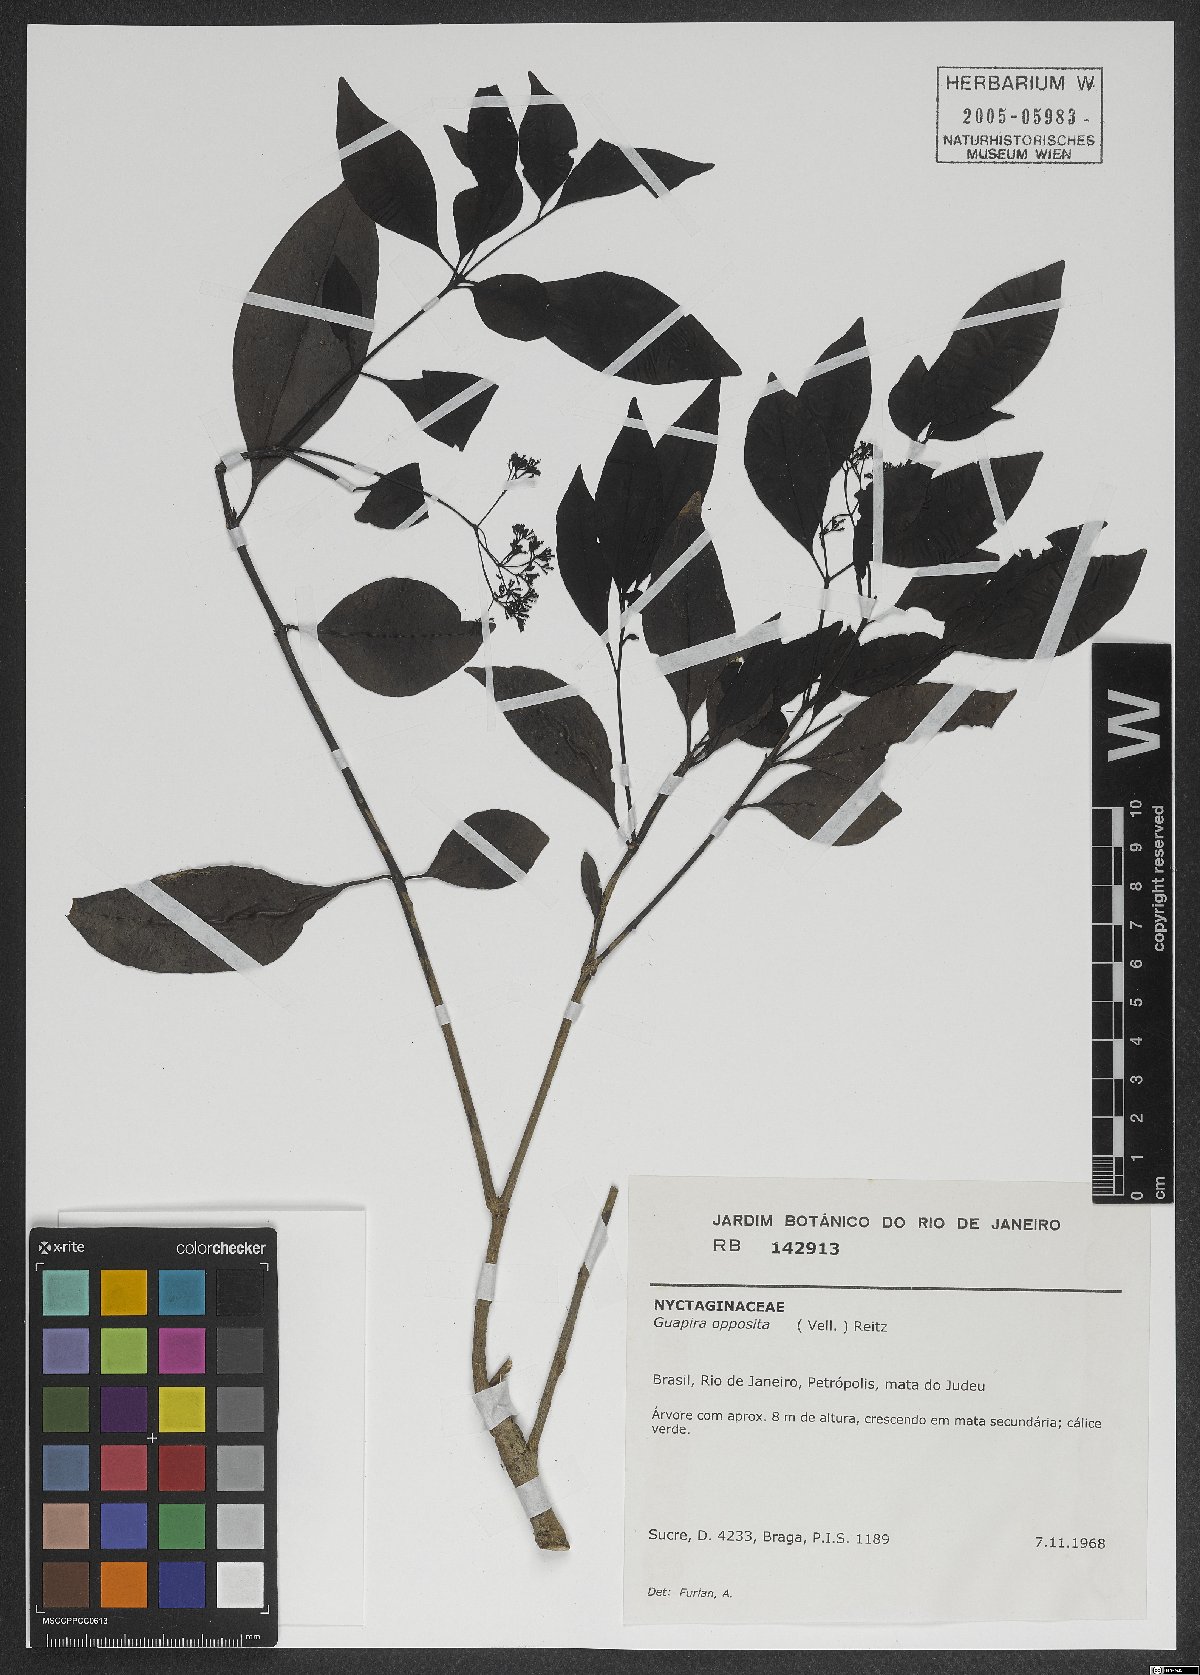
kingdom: Plantae
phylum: Tracheophyta
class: Magnoliopsida
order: Caryophyllales
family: Nyctaginaceae
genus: Guapira
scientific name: Guapira opposita
